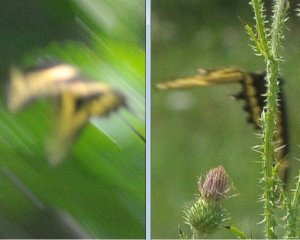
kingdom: Animalia
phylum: Arthropoda
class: Insecta
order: Lepidoptera
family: Papilionidae
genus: Papilio
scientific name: Papilio cresphontes
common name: Eastern Giant Swallowtail
